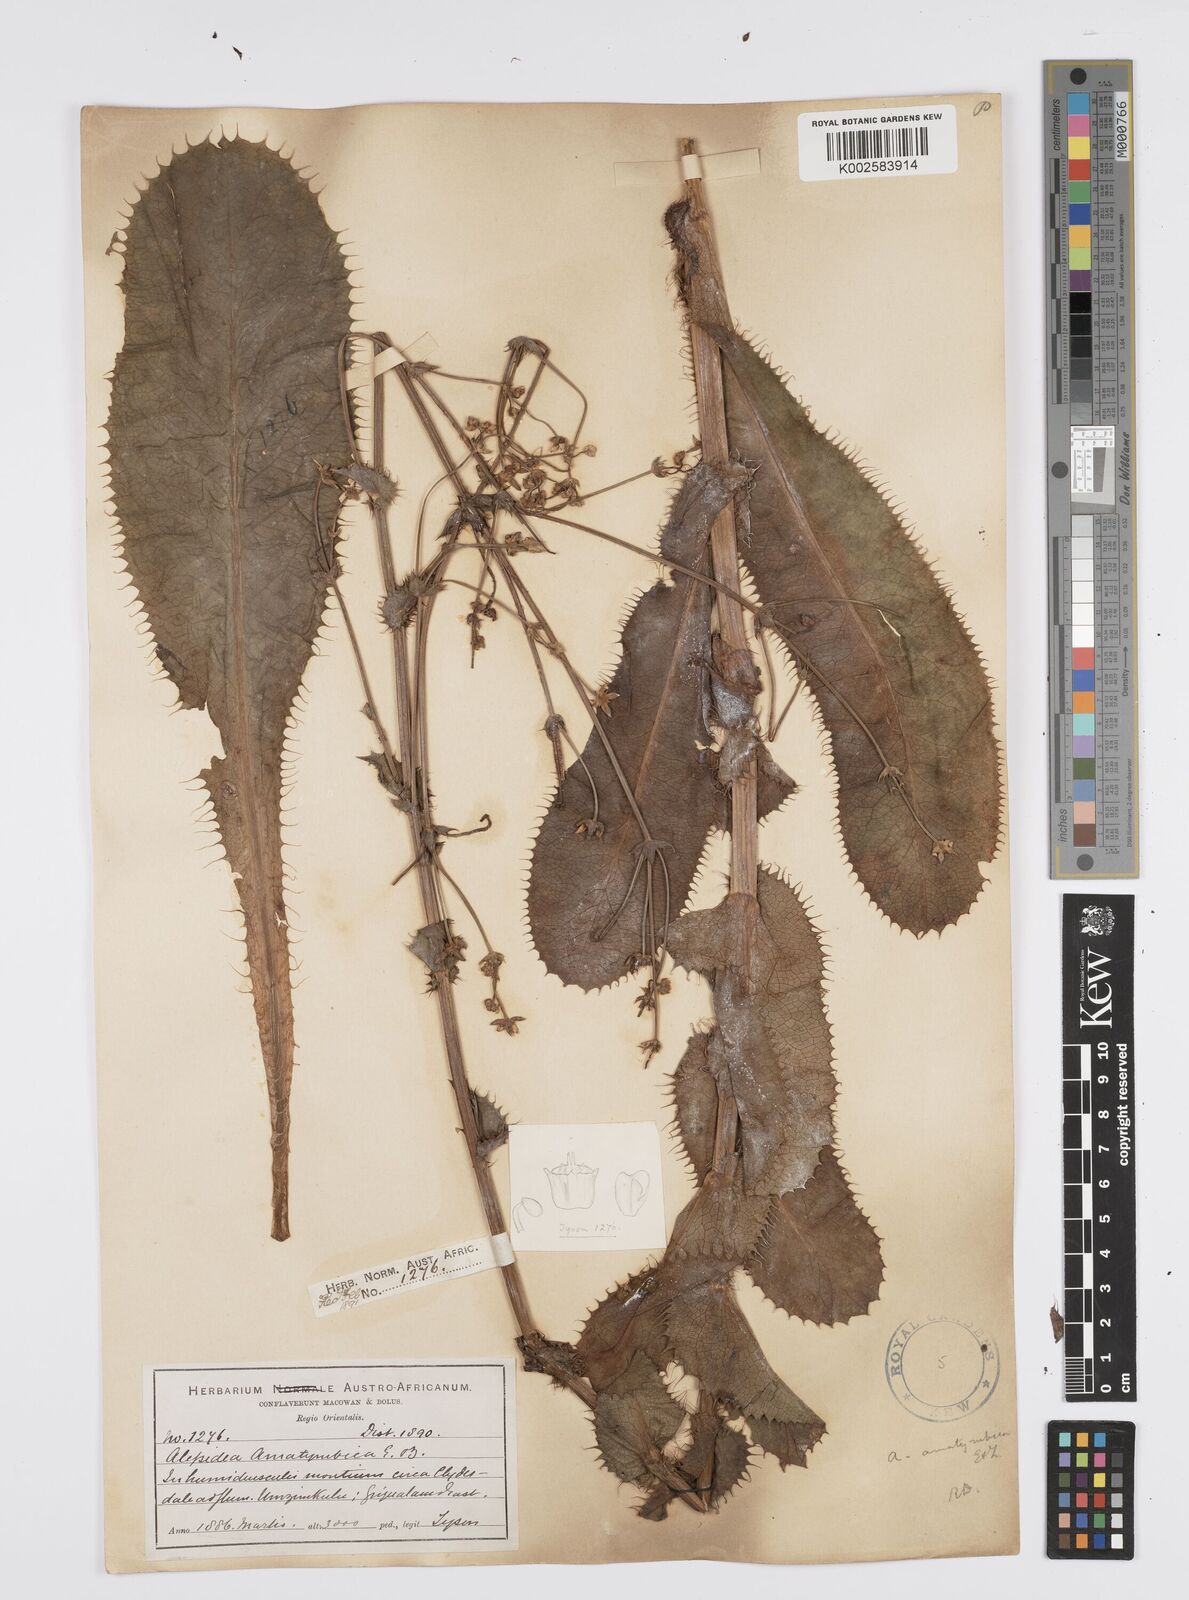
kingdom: Plantae
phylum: Tracheophyta
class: Magnoliopsida
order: Apiales
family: Apiaceae
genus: Alepidea
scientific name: Alepidea amatymbica
